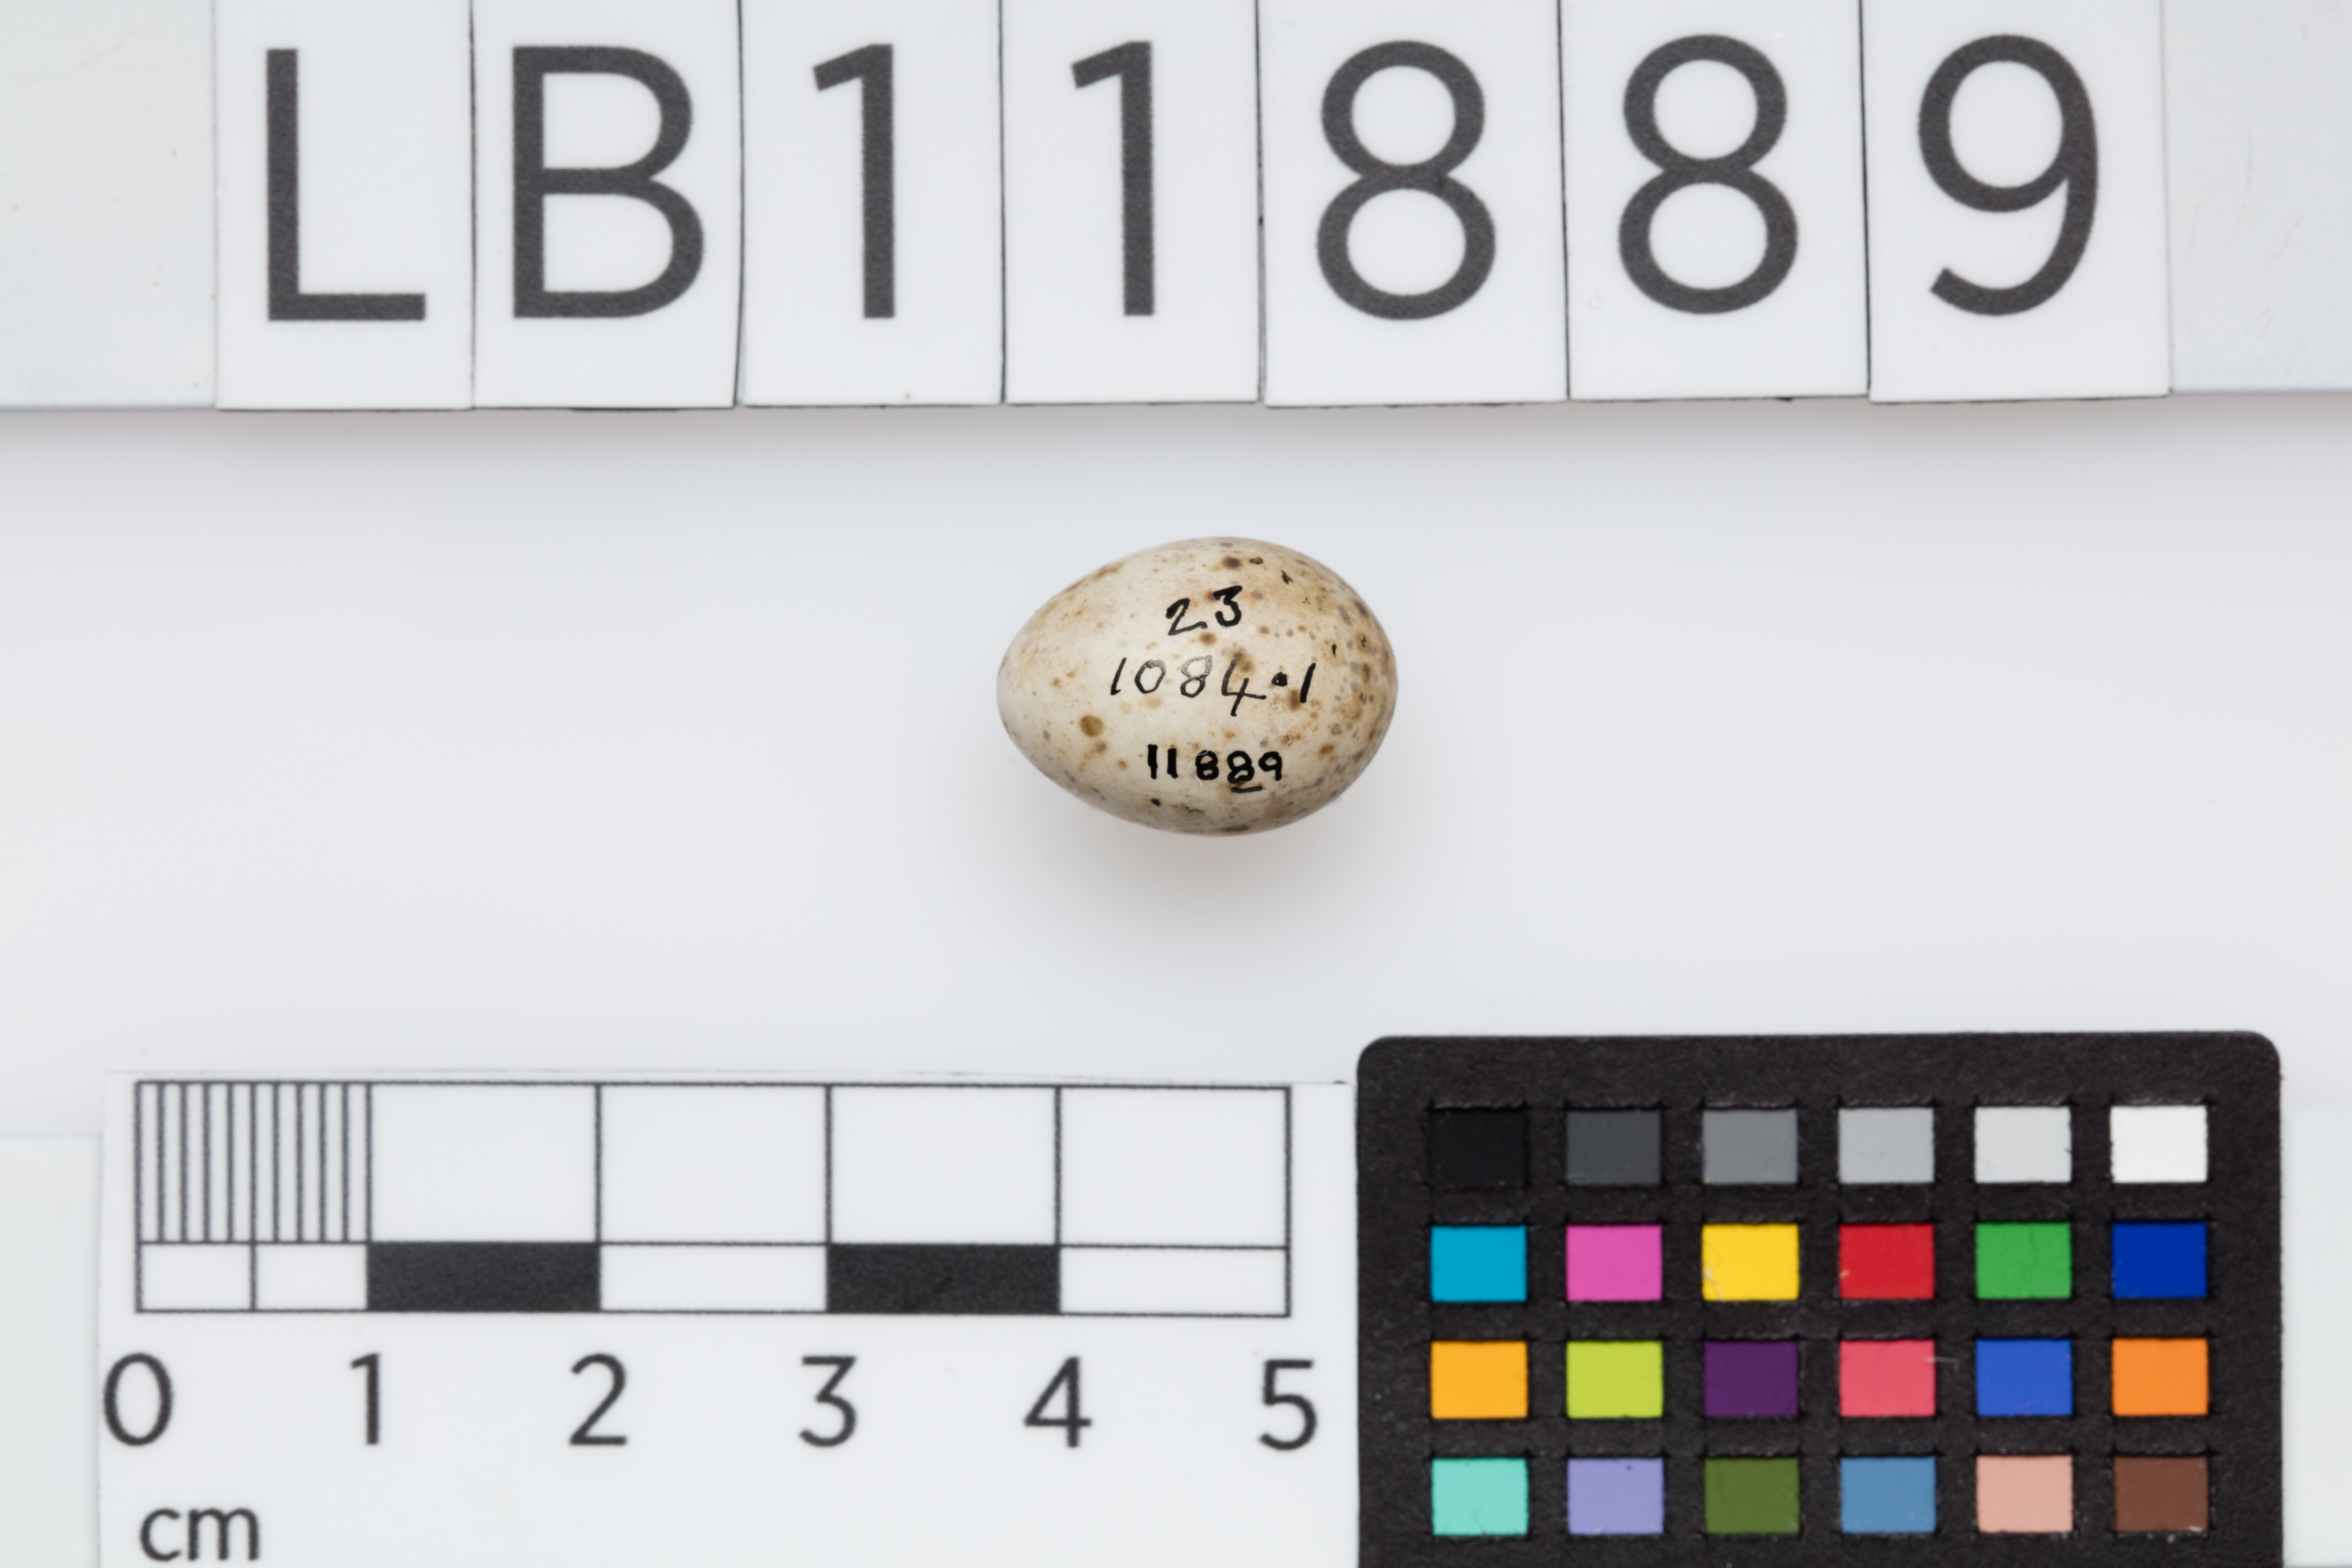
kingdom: Animalia
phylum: Chordata
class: Aves
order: Passeriformes
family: Panuridae
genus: Panurus
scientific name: Panurus biarmicus
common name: Bearded reedling
